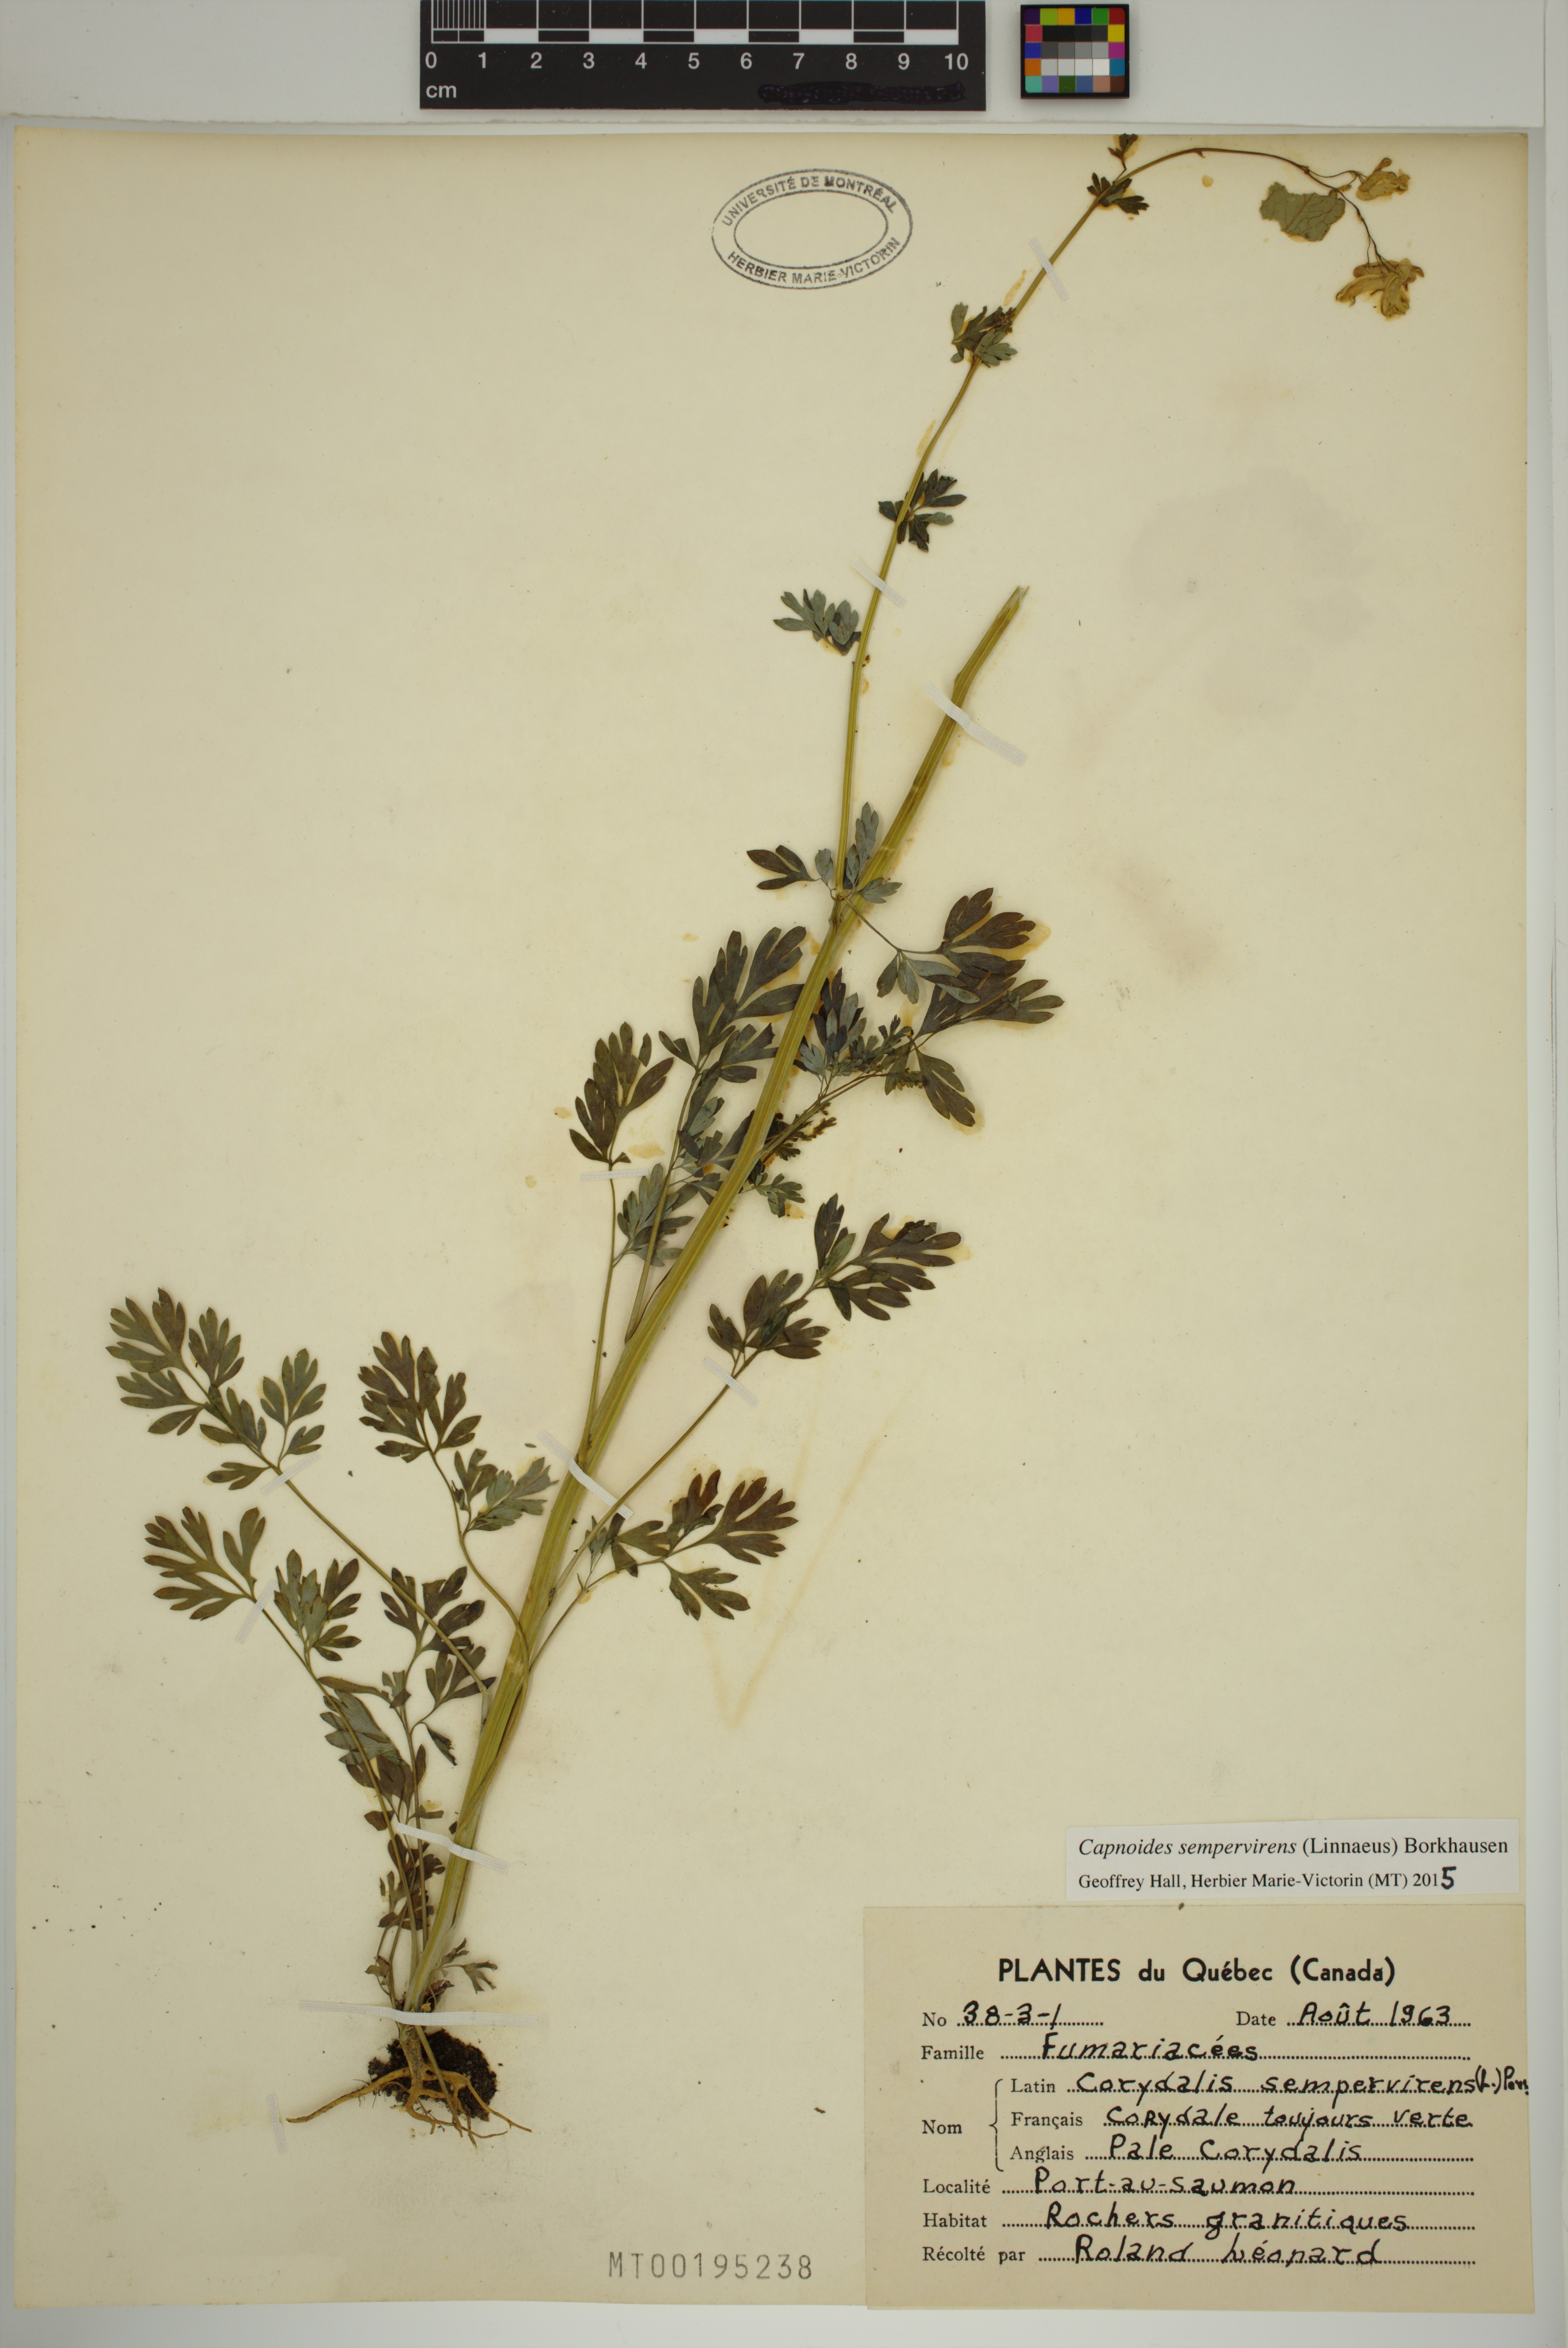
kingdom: Plantae
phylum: Tracheophyta
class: Magnoliopsida
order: Ranunculales
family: Papaveraceae
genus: Capnoides
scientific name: Capnoides sempervirens
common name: Rock harlequin
